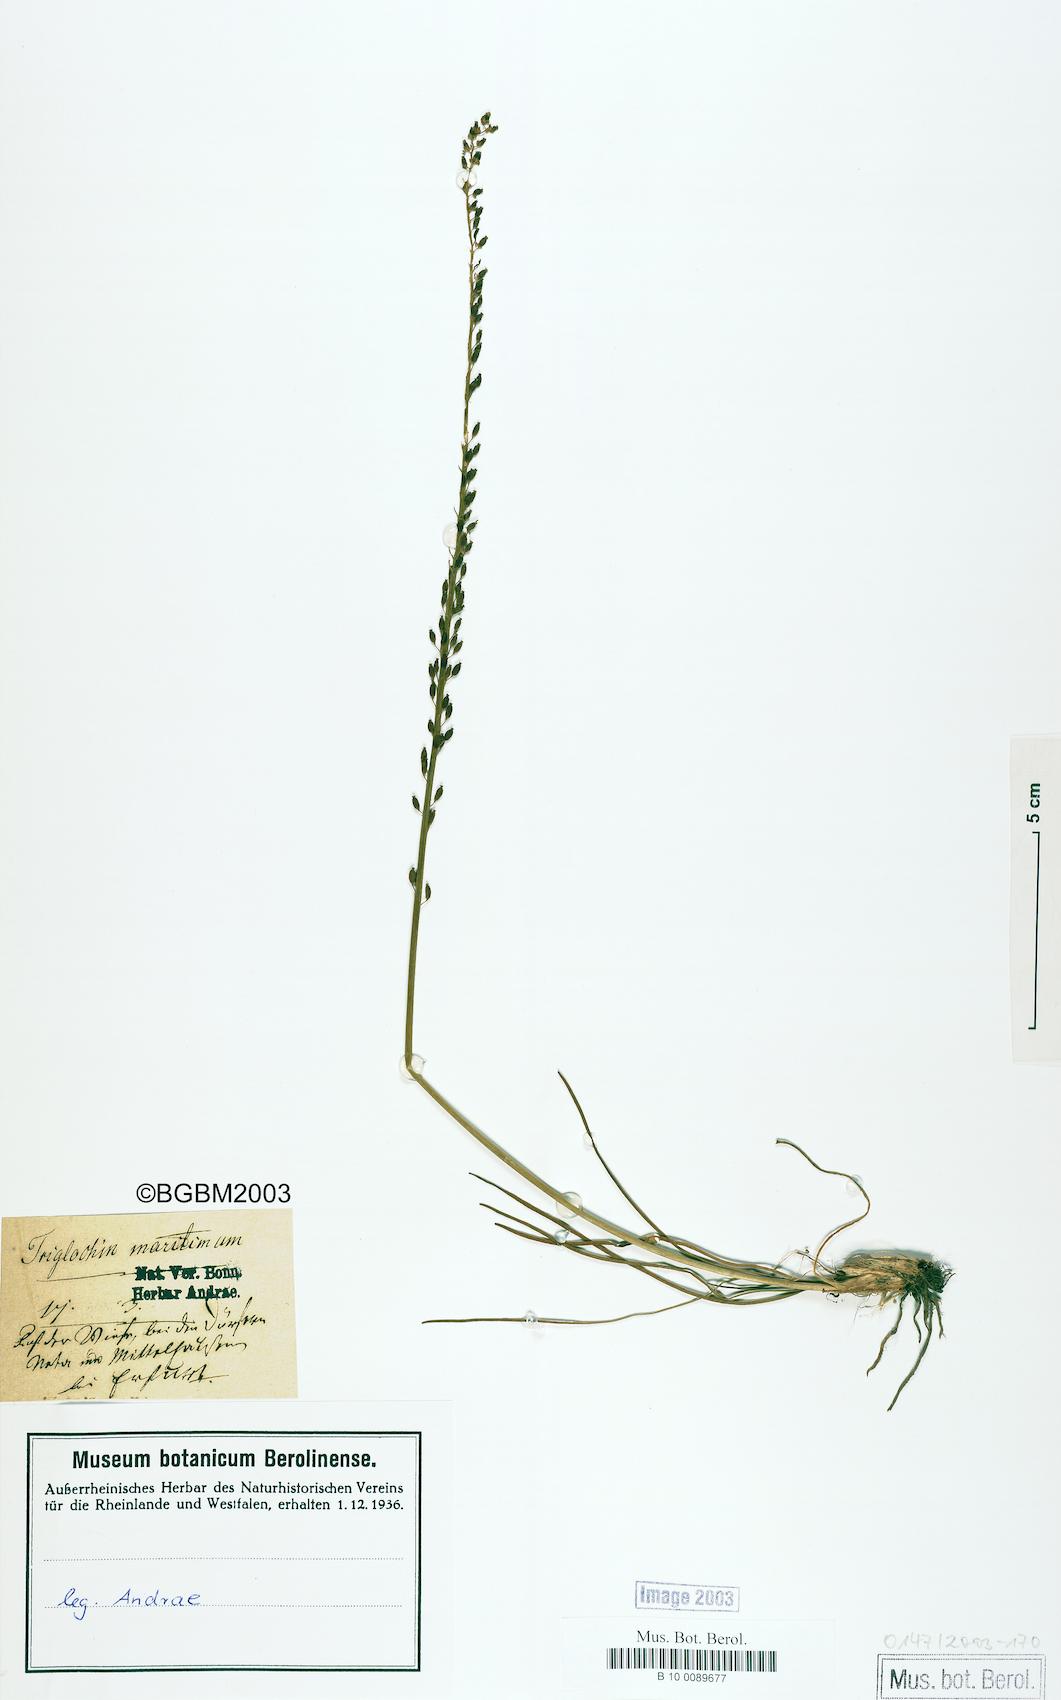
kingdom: Plantae
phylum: Tracheophyta
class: Liliopsida
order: Alismatales
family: Juncaginaceae
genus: Triglochin
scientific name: Triglochin maritima
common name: Sea arrowgrass
